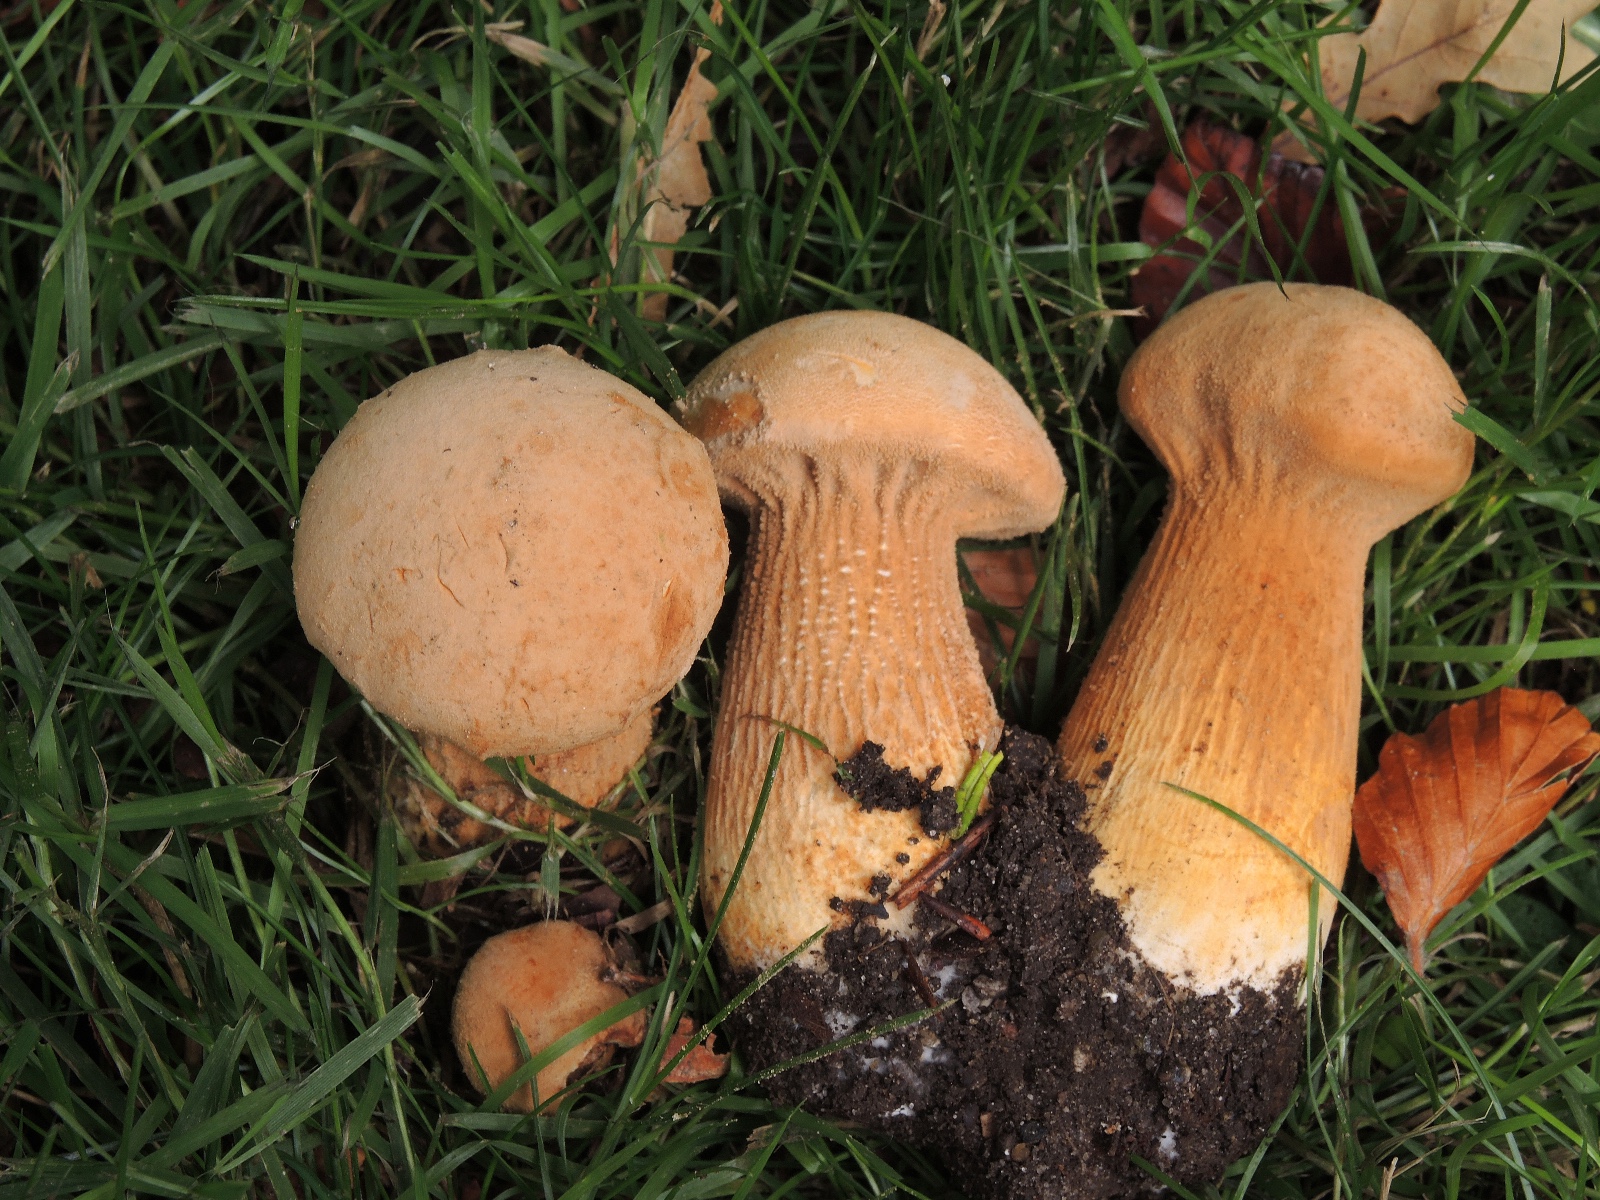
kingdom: Fungi
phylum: Basidiomycota
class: Agaricomycetes
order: Agaricales
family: Tricholomataceae
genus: Phaeolepiota
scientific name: Phaeolepiota aurea
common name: gyldenhat
